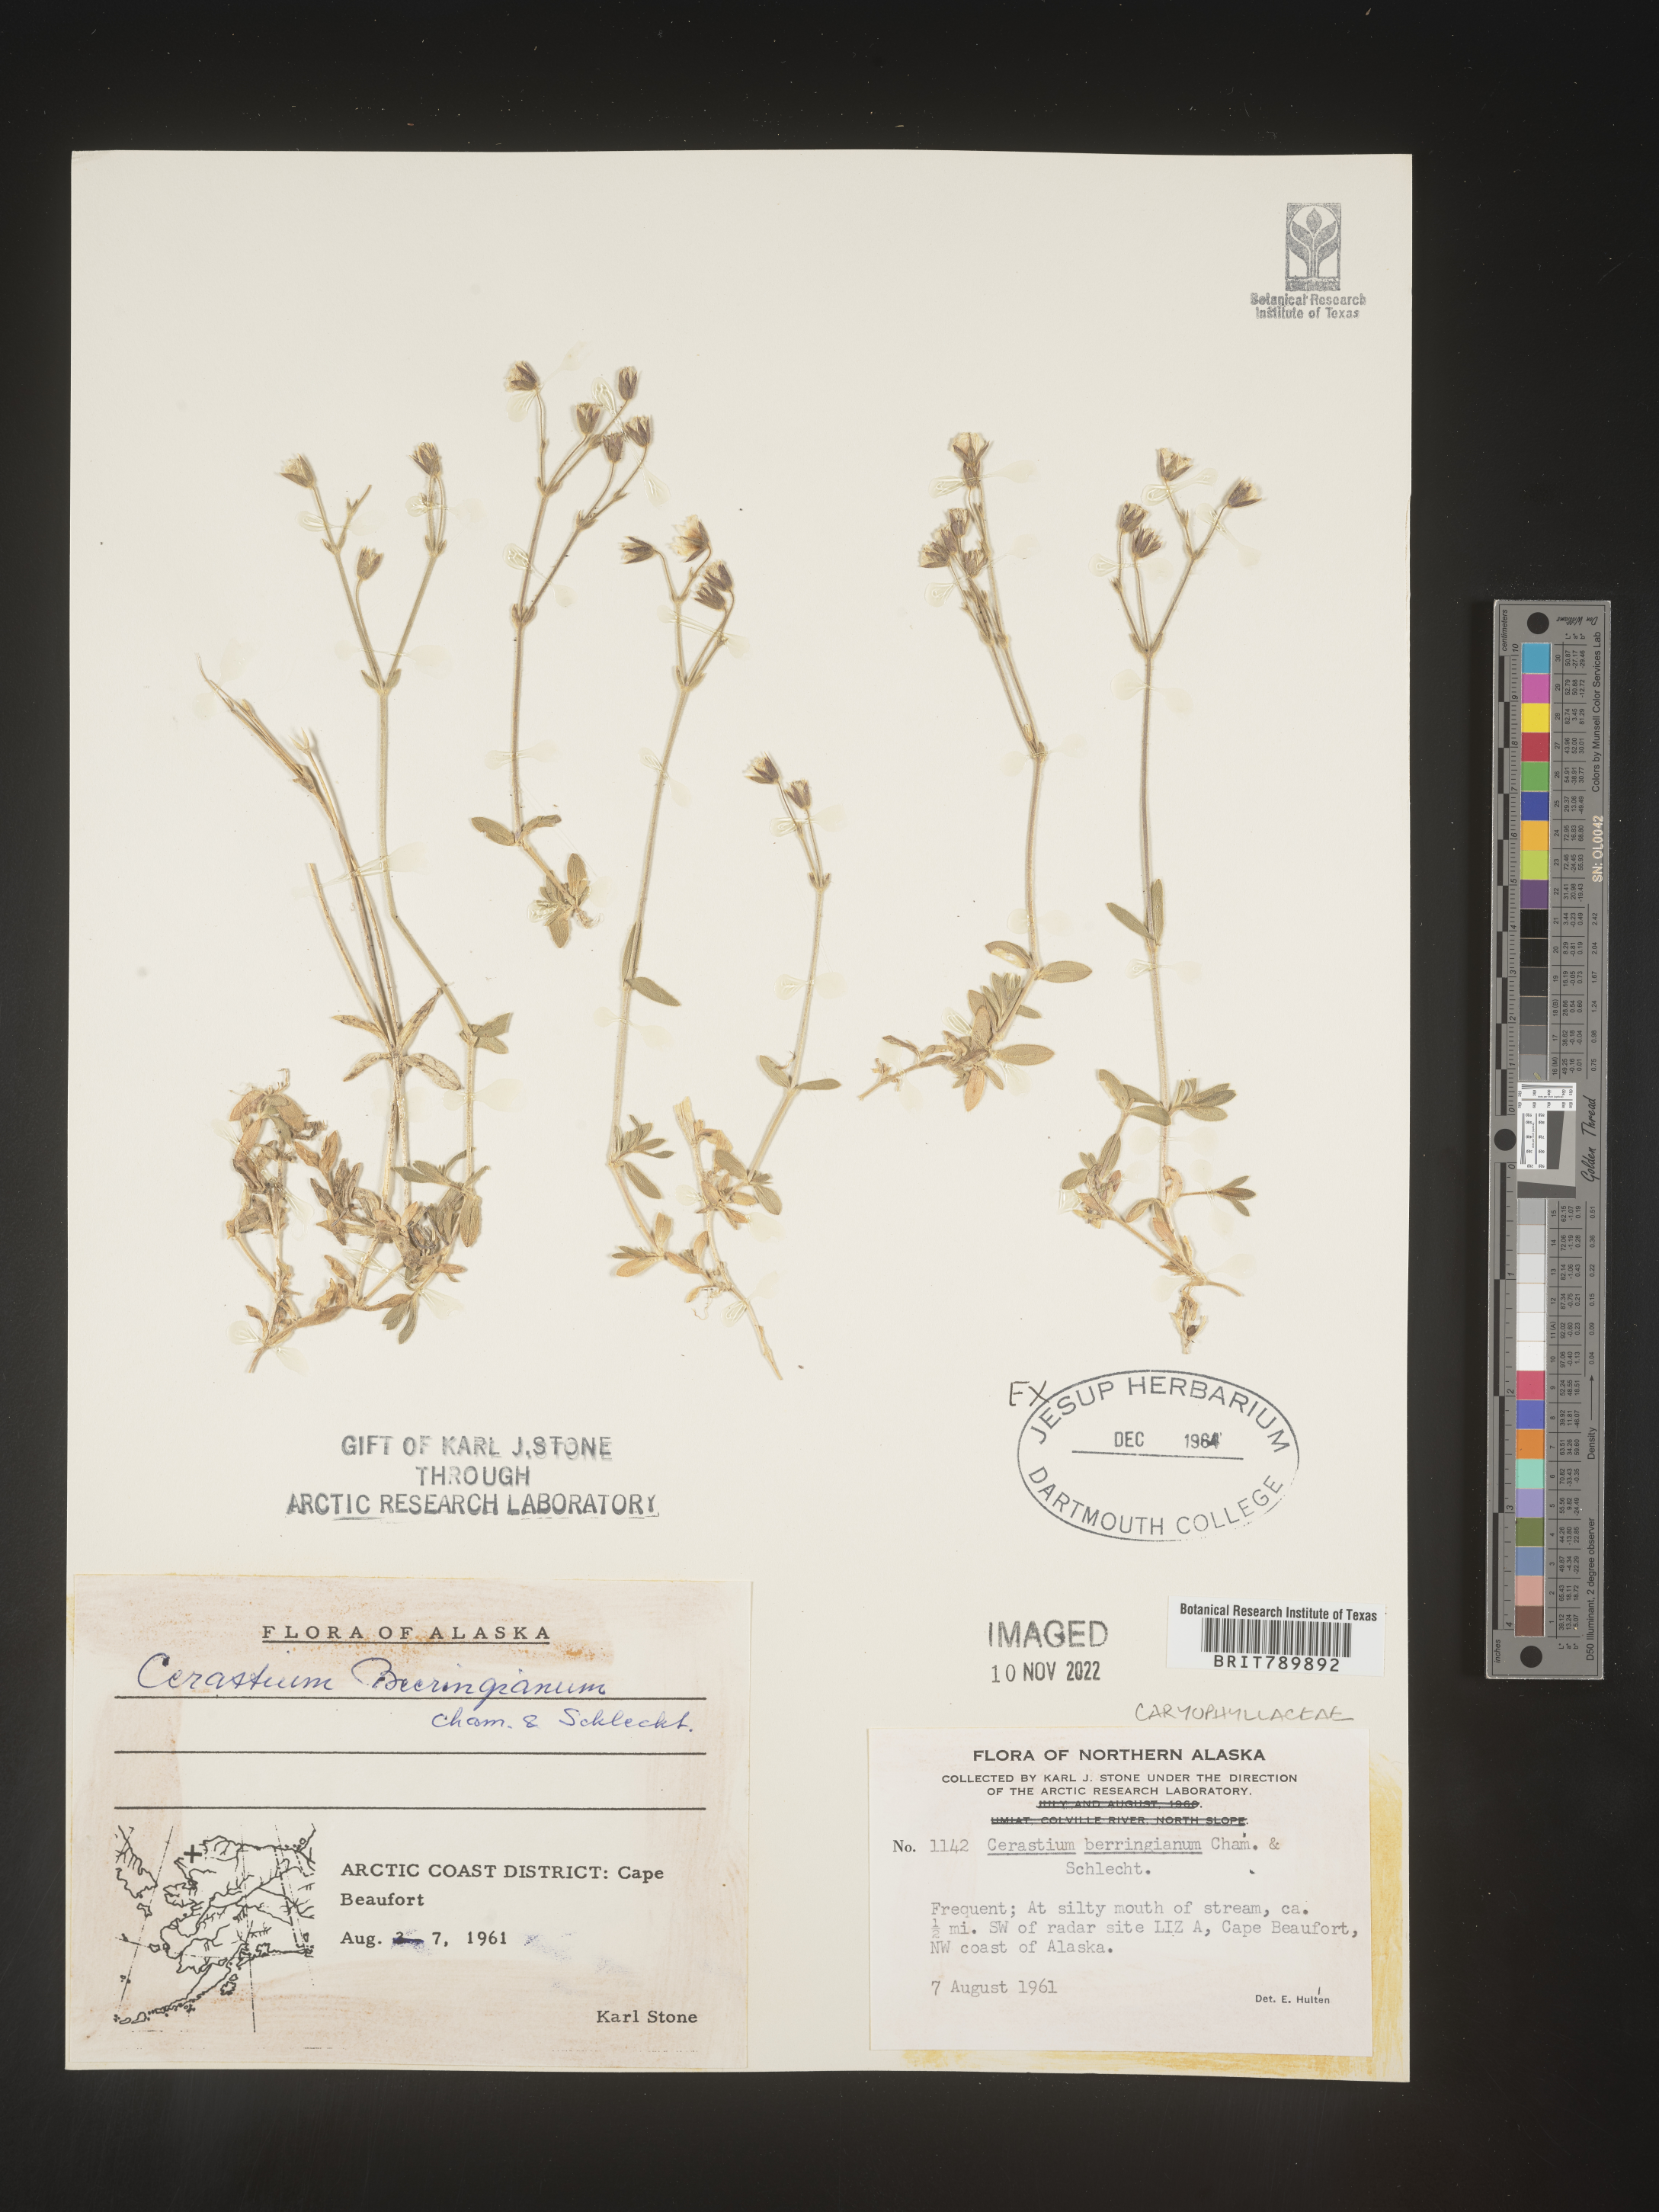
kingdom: Plantae
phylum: Tracheophyta
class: Magnoliopsida
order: Caryophyllales
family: Caryophyllaceae
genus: Cerastium
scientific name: Cerastium beeringianum
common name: Bering mouse-ear chickweed
